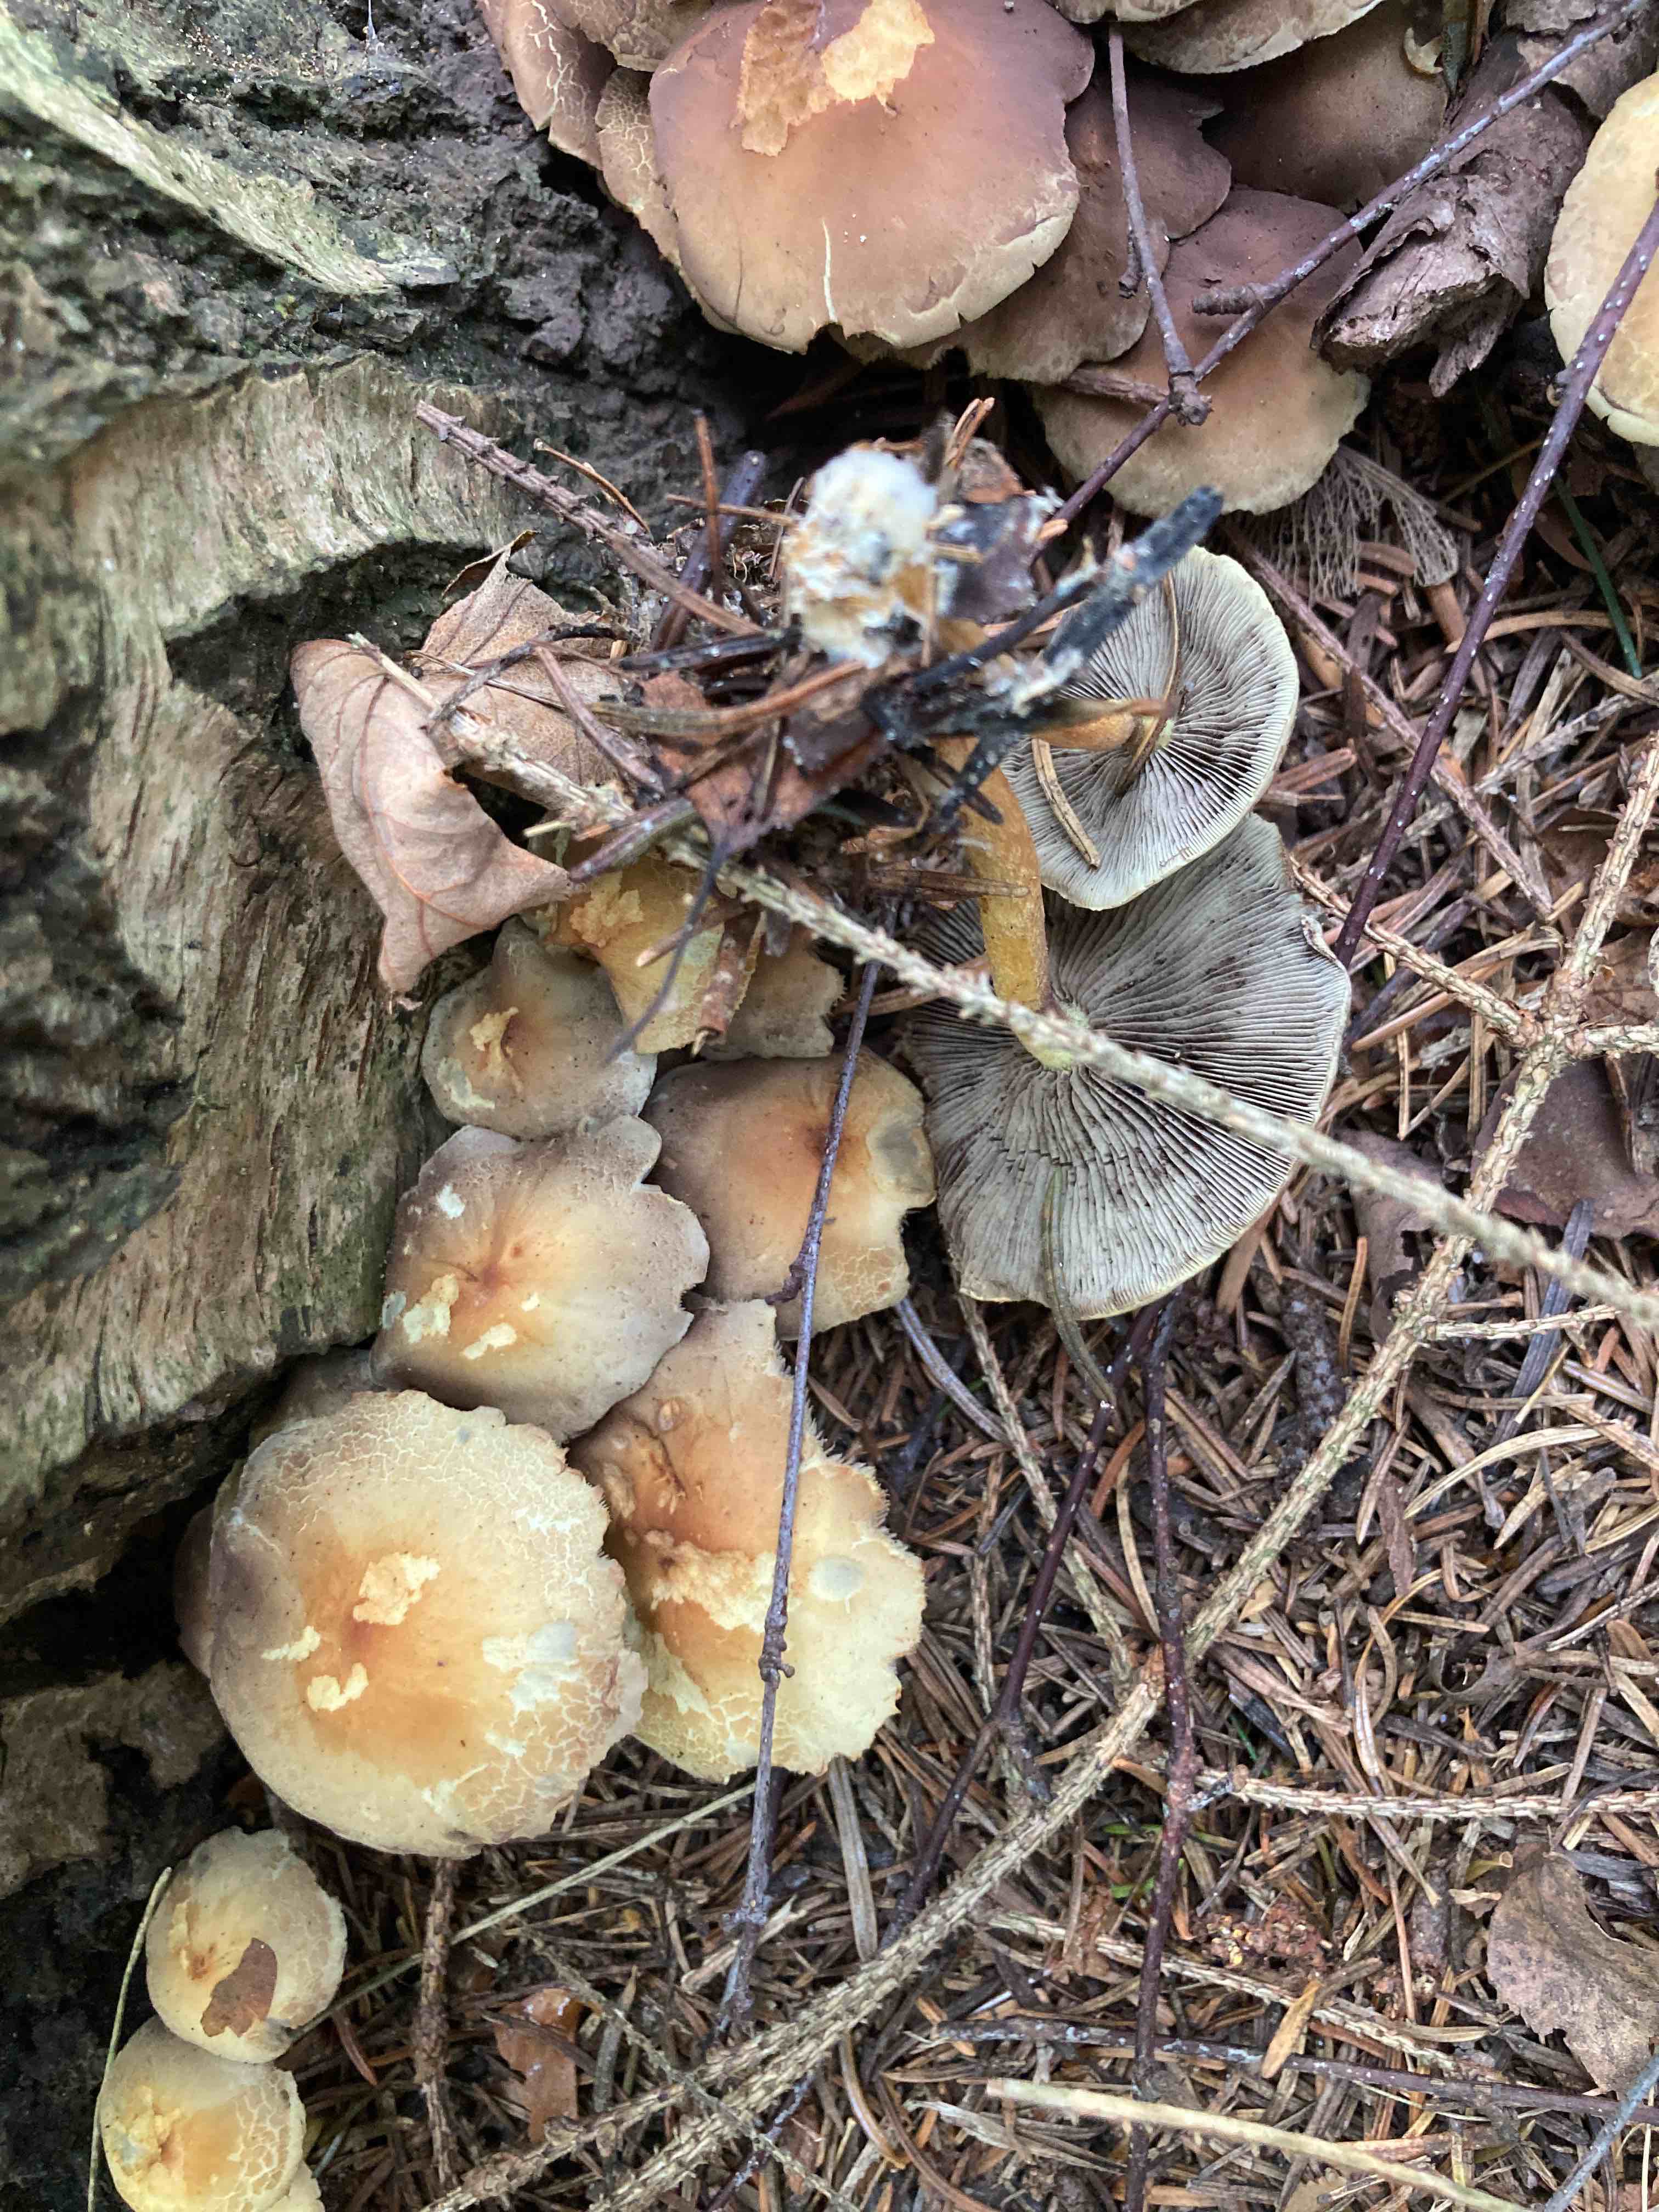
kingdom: Fungi
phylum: Basidiomycota
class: Agaricomycetes
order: Agaricales
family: Strophariaceae
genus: Hypholoma
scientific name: Hypholoma fasciculare
